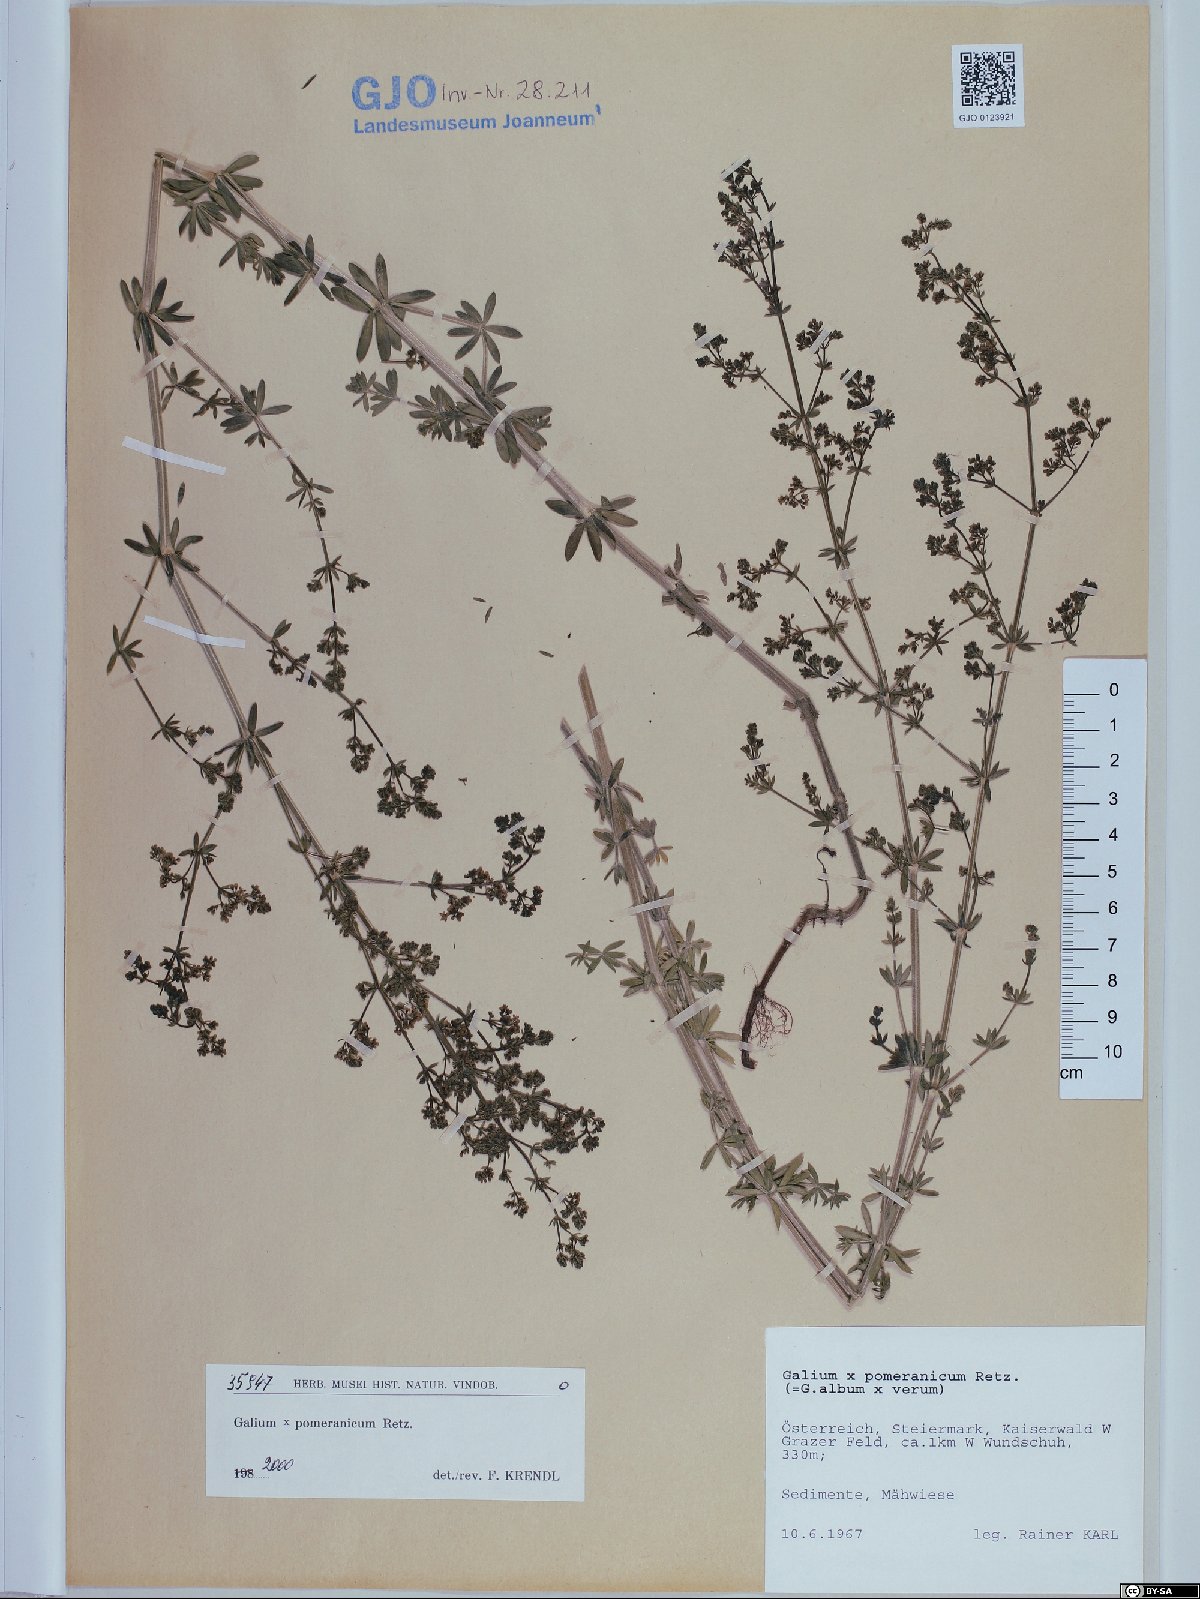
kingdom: Plantae
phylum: Tracheophyta
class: Magnoliopsida
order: Gentianales
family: Rubiaceae
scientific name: Rubiaceae
